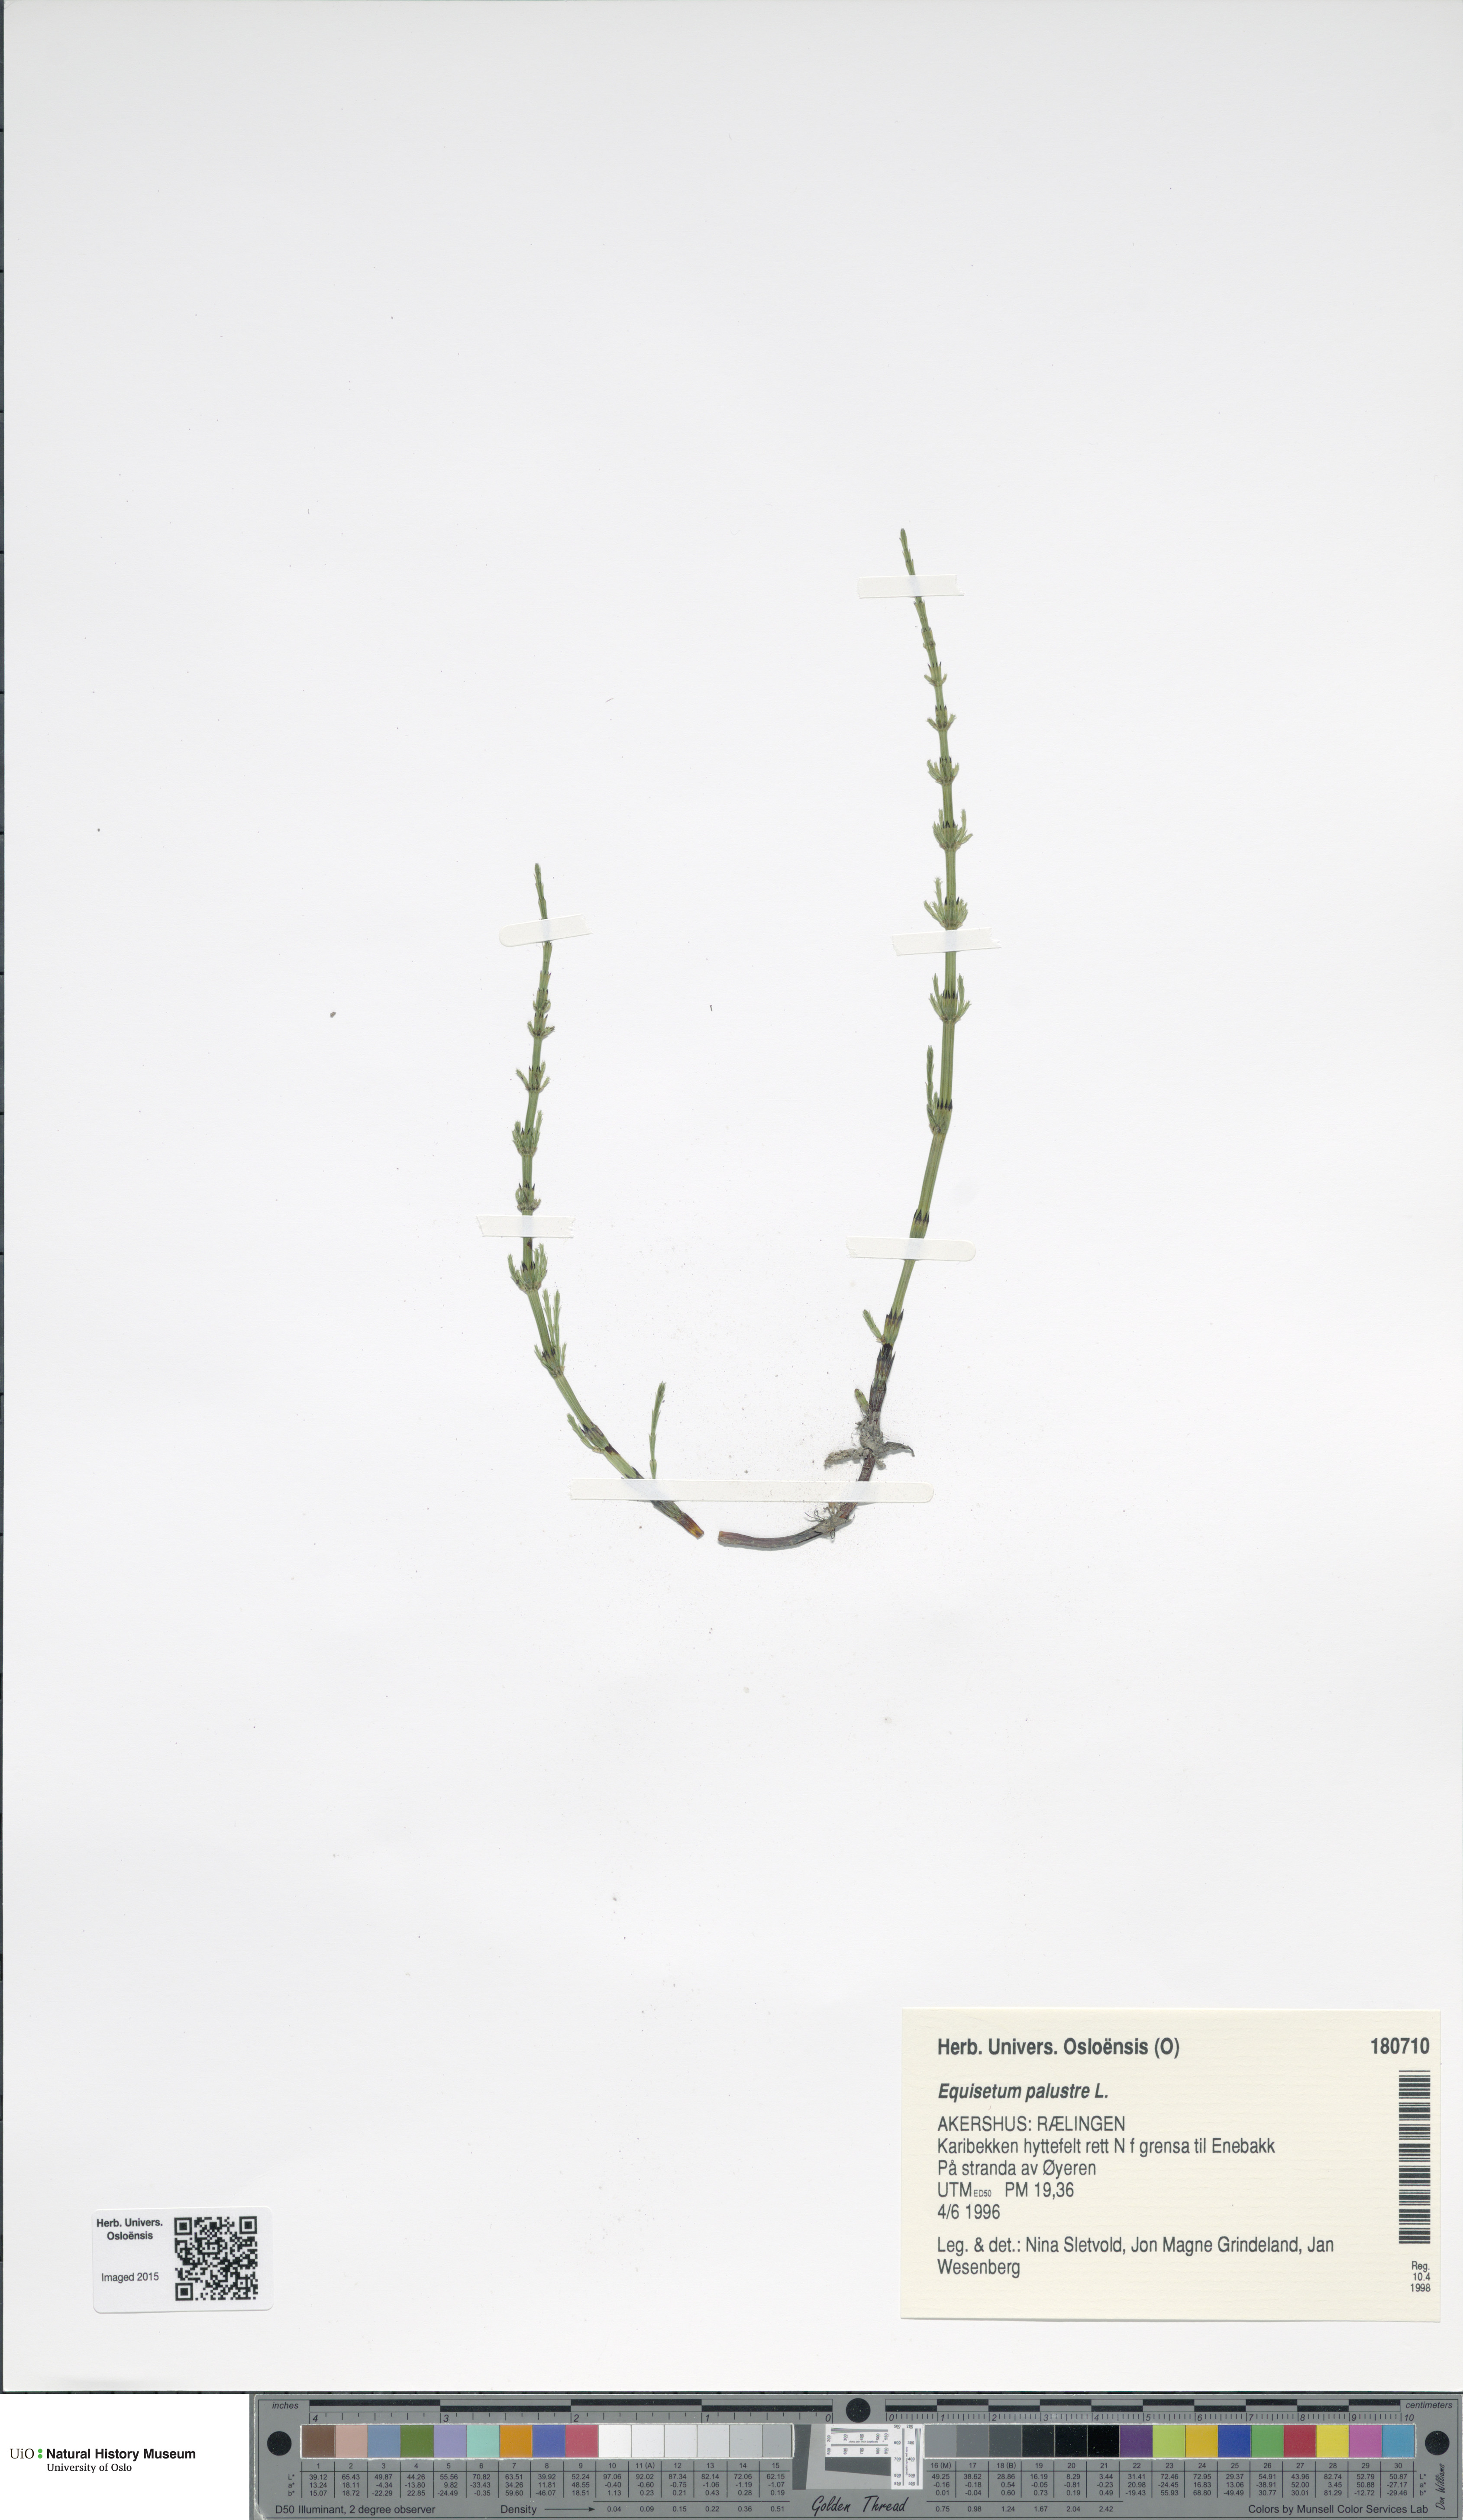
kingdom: Plantae
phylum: Tracheophyta
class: Polypodiopsida
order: Equisetales
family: Equisetaceae
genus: Equisetum
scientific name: Equisetum palustre
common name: Marsh horsetail
